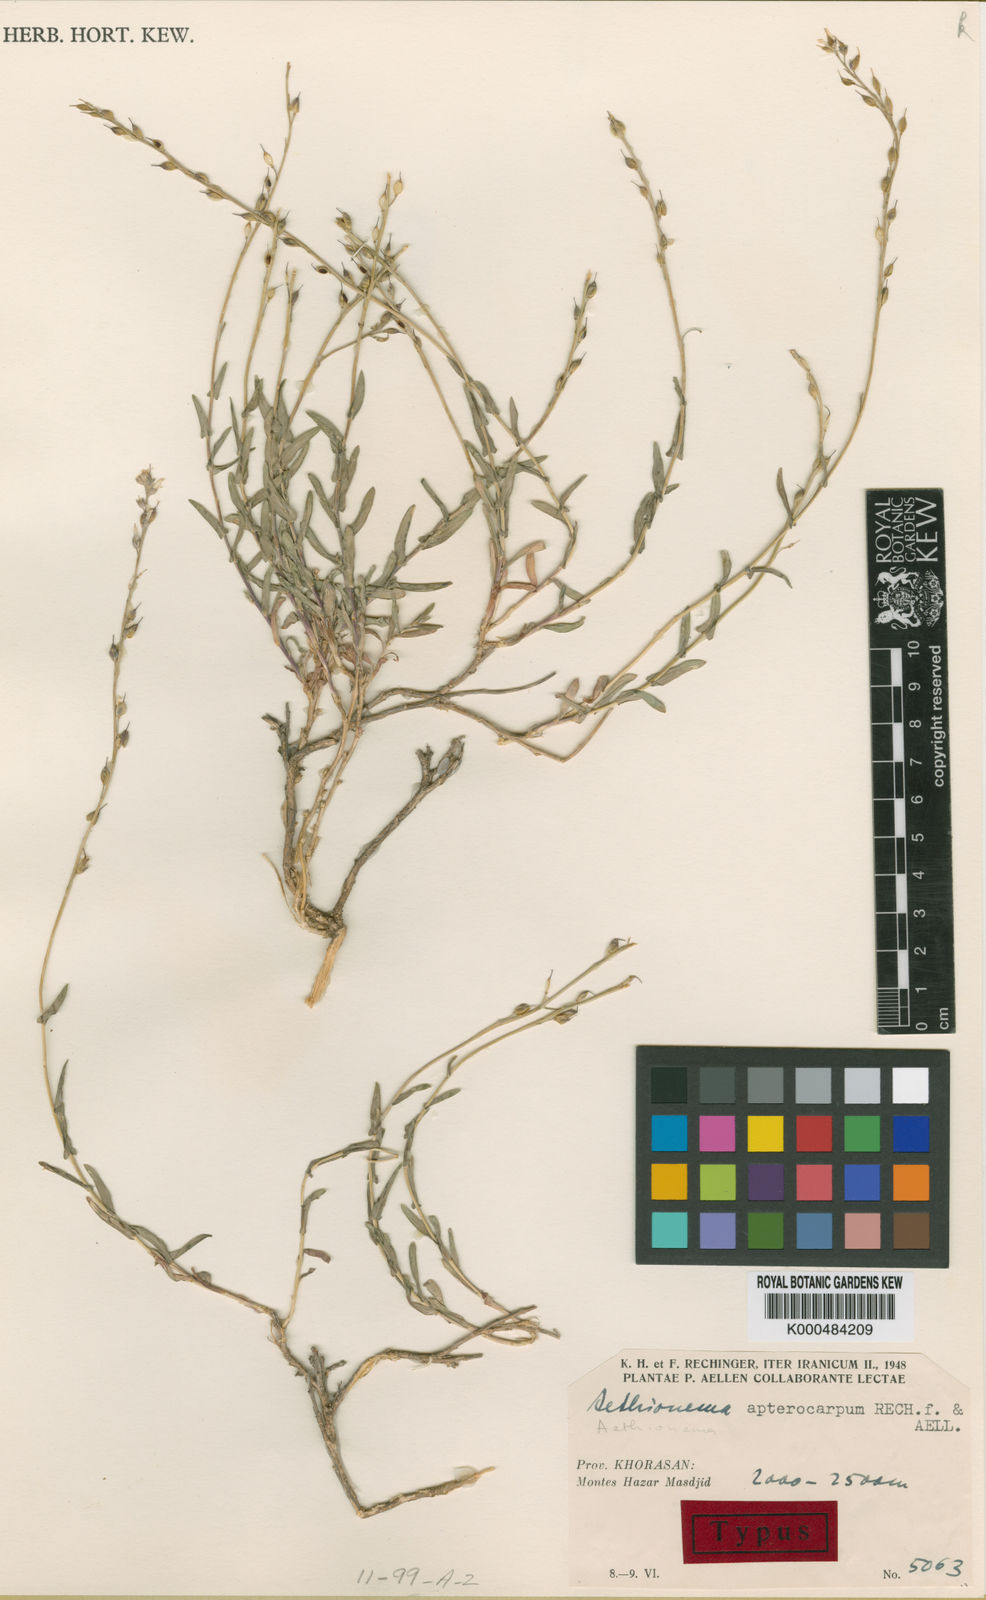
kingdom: Plantae
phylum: Tracheophyta
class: Magnoliopsida
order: Brassicales
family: Brassicaceae
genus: Noccaea
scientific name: Noccaea apterocarpa
